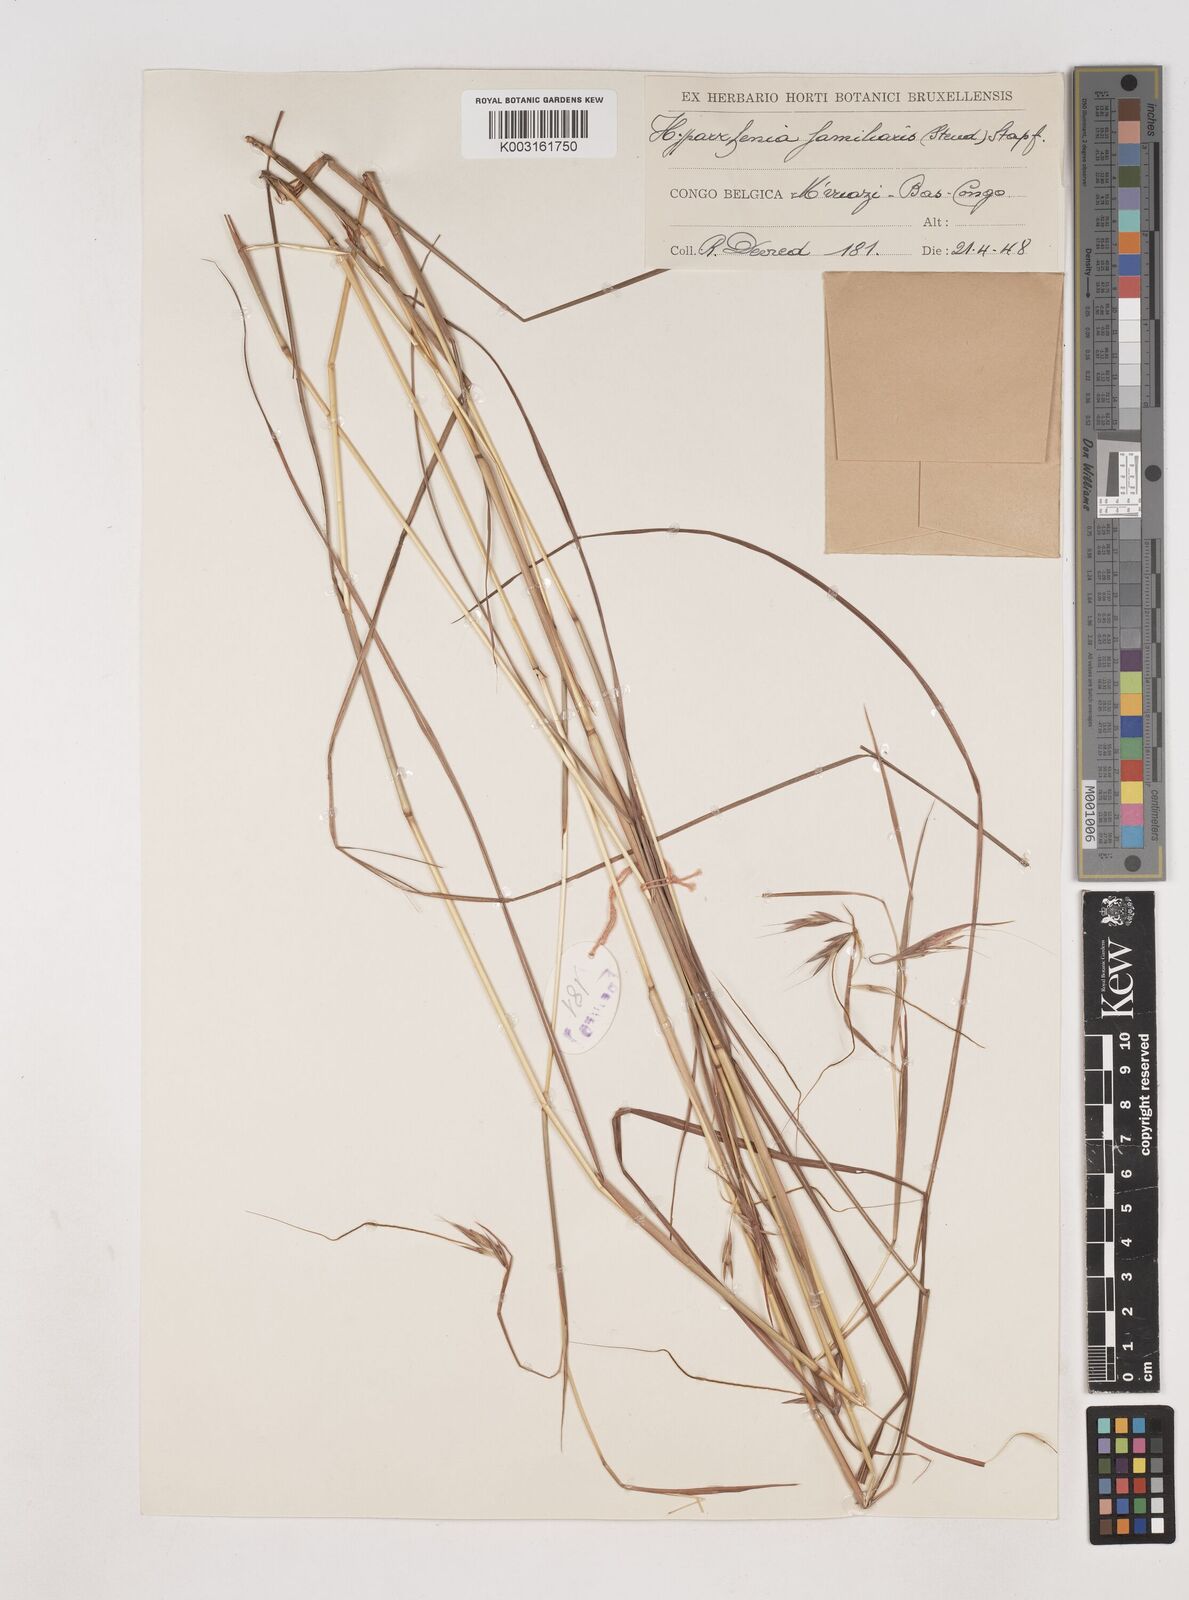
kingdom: Plantae
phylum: Tracheophyta
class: Liliopsida
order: Poales
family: Poaceae
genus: Hyparrhenia
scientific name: Hyparrhenia familiaris
